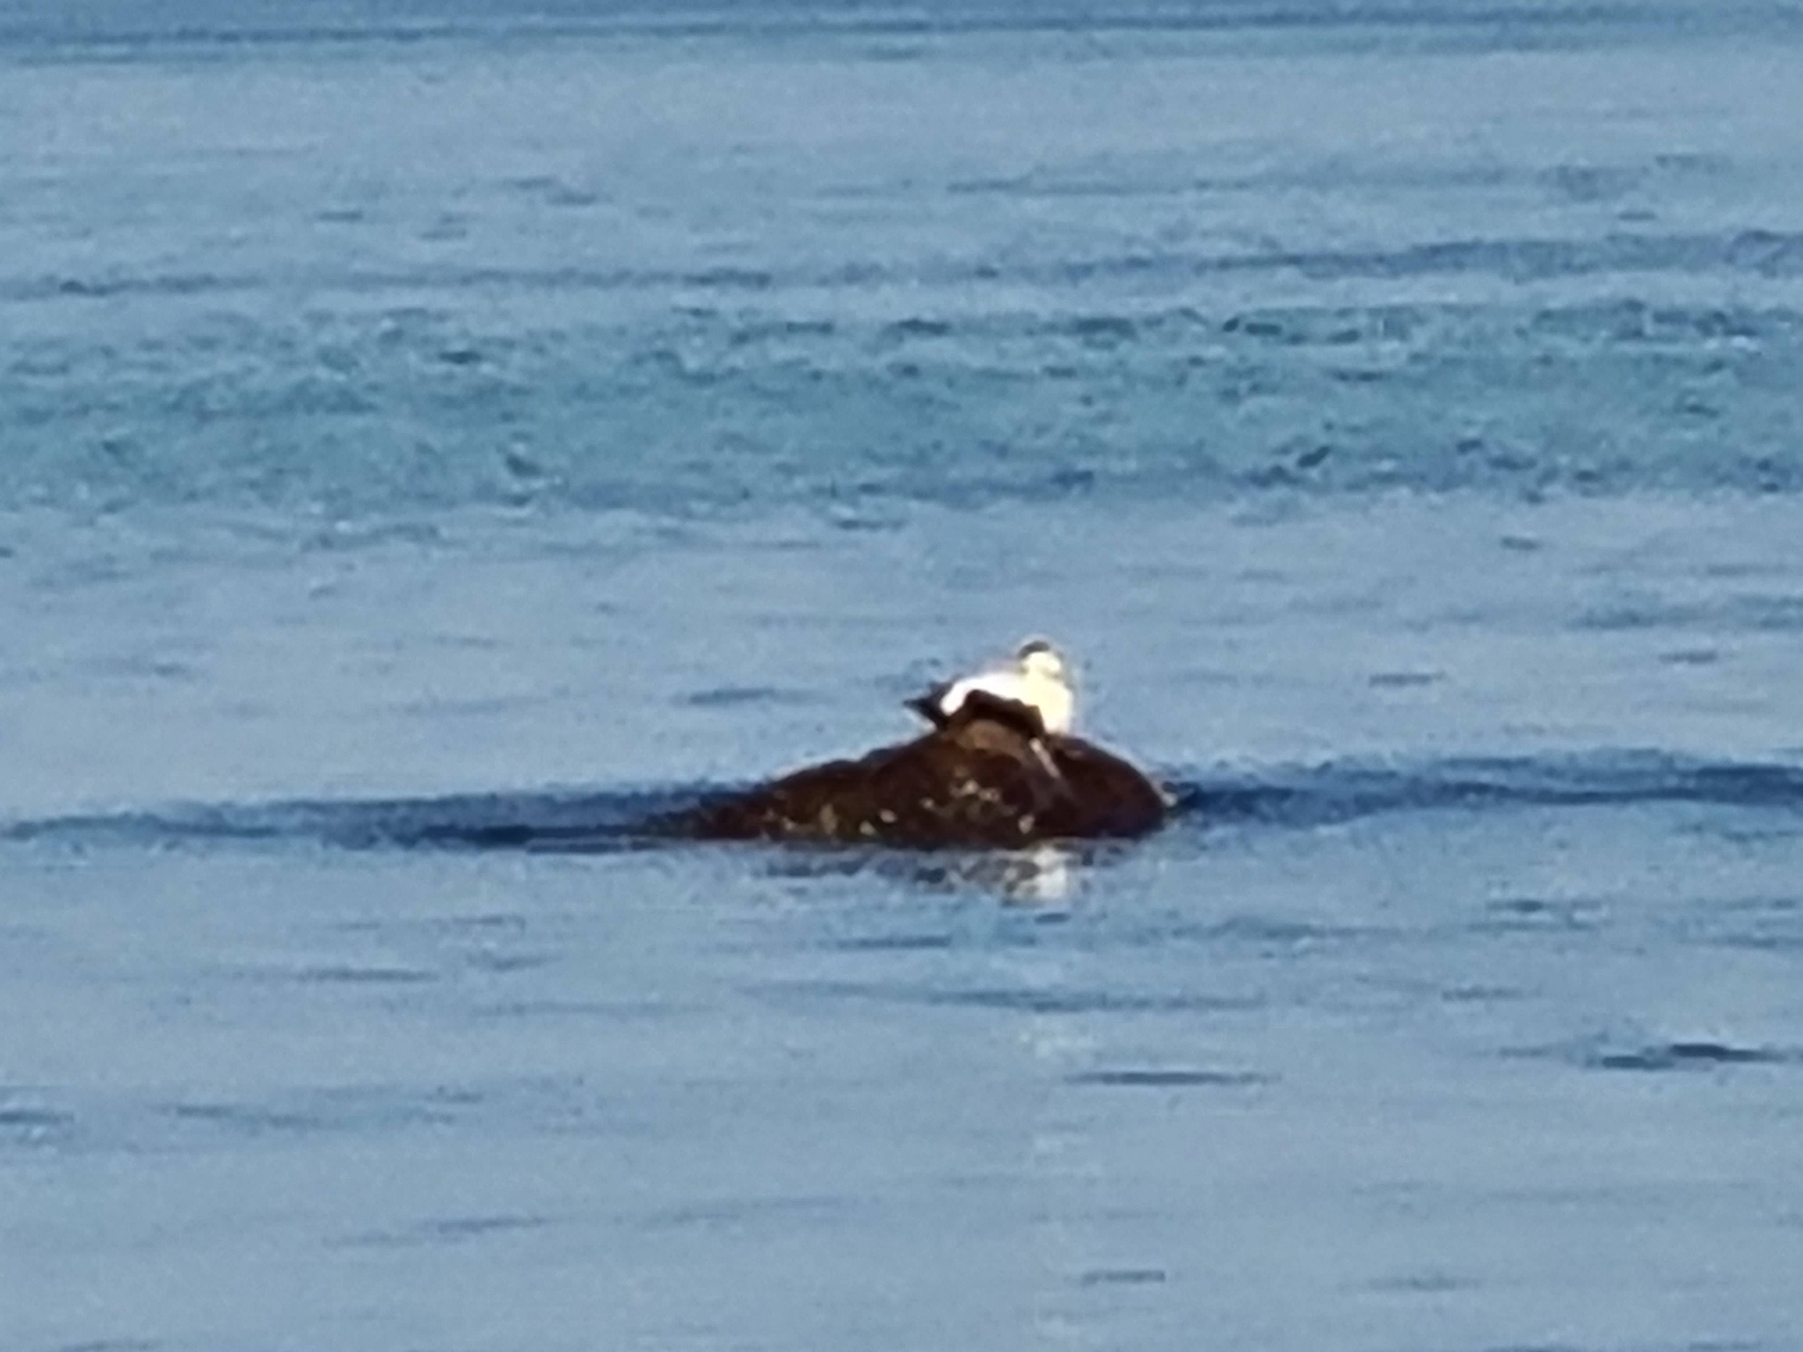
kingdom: Animalia
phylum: Chordata
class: Aves
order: Anseriformes
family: Anatidae
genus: Somateria
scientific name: Somateria mollissima
